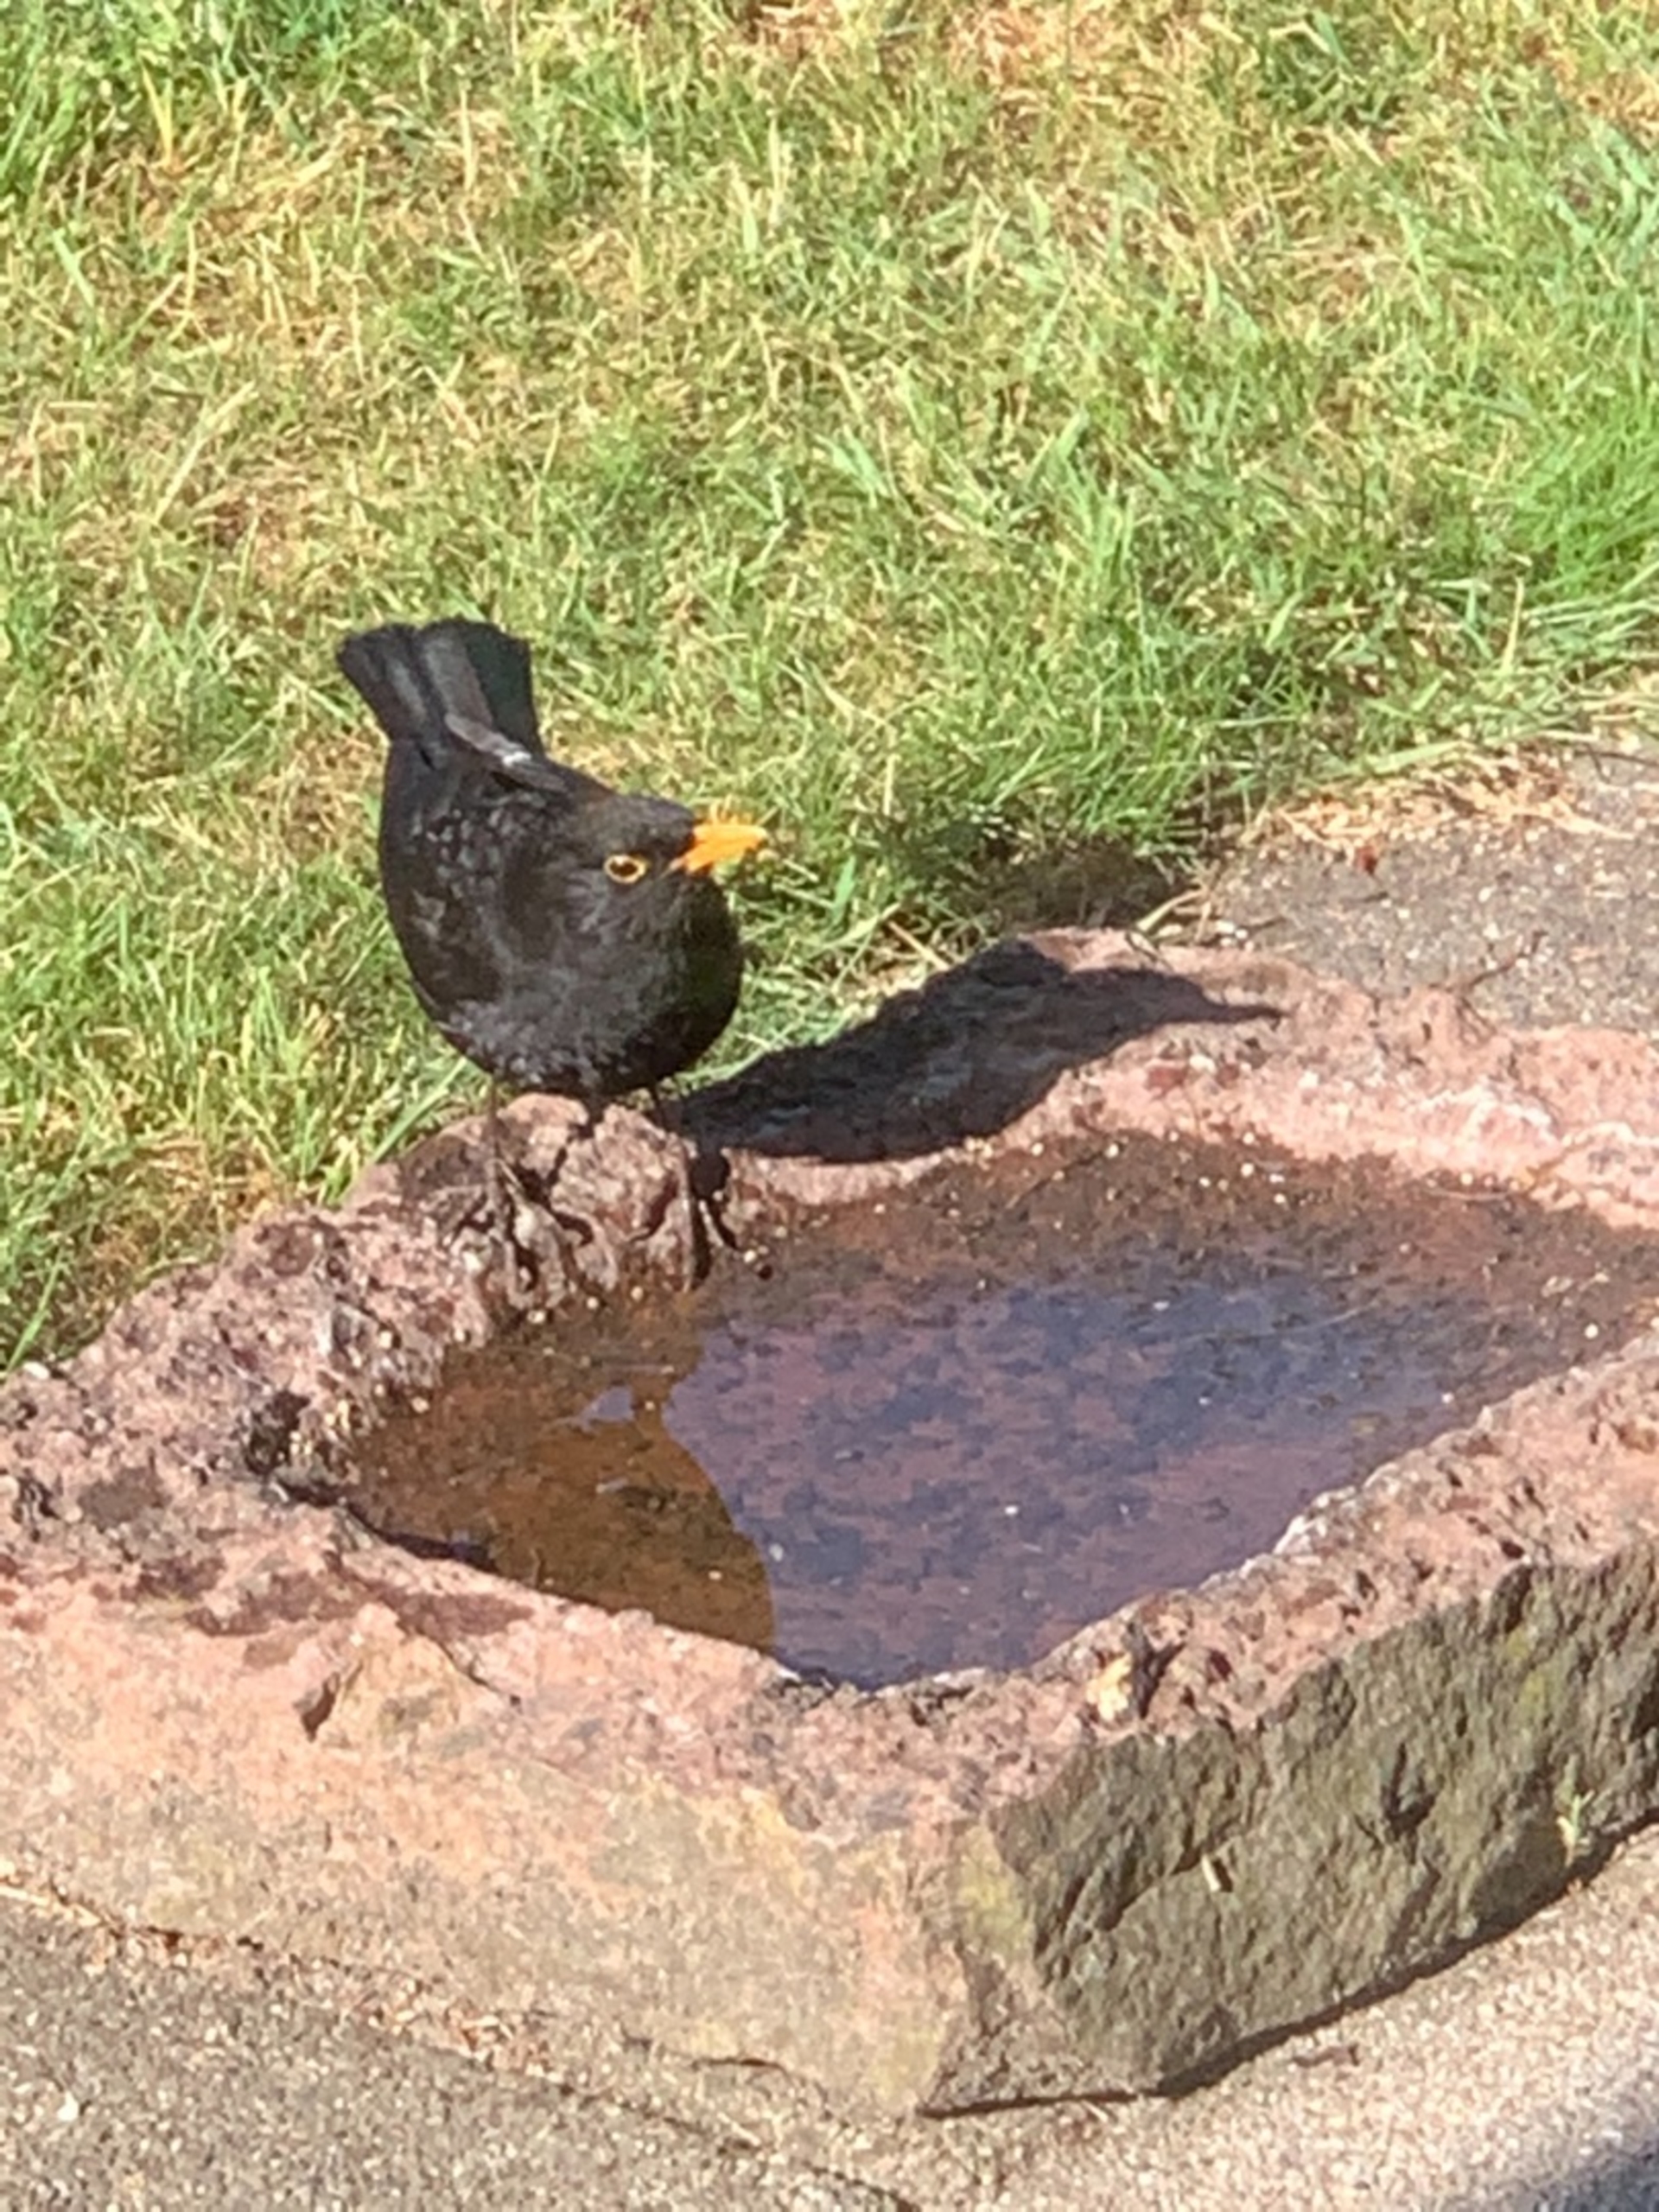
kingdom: Animalia
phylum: Chordata
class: Aves
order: Passeriformes
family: Turdidae
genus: Turdus
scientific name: Turdus merula
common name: Solsort
